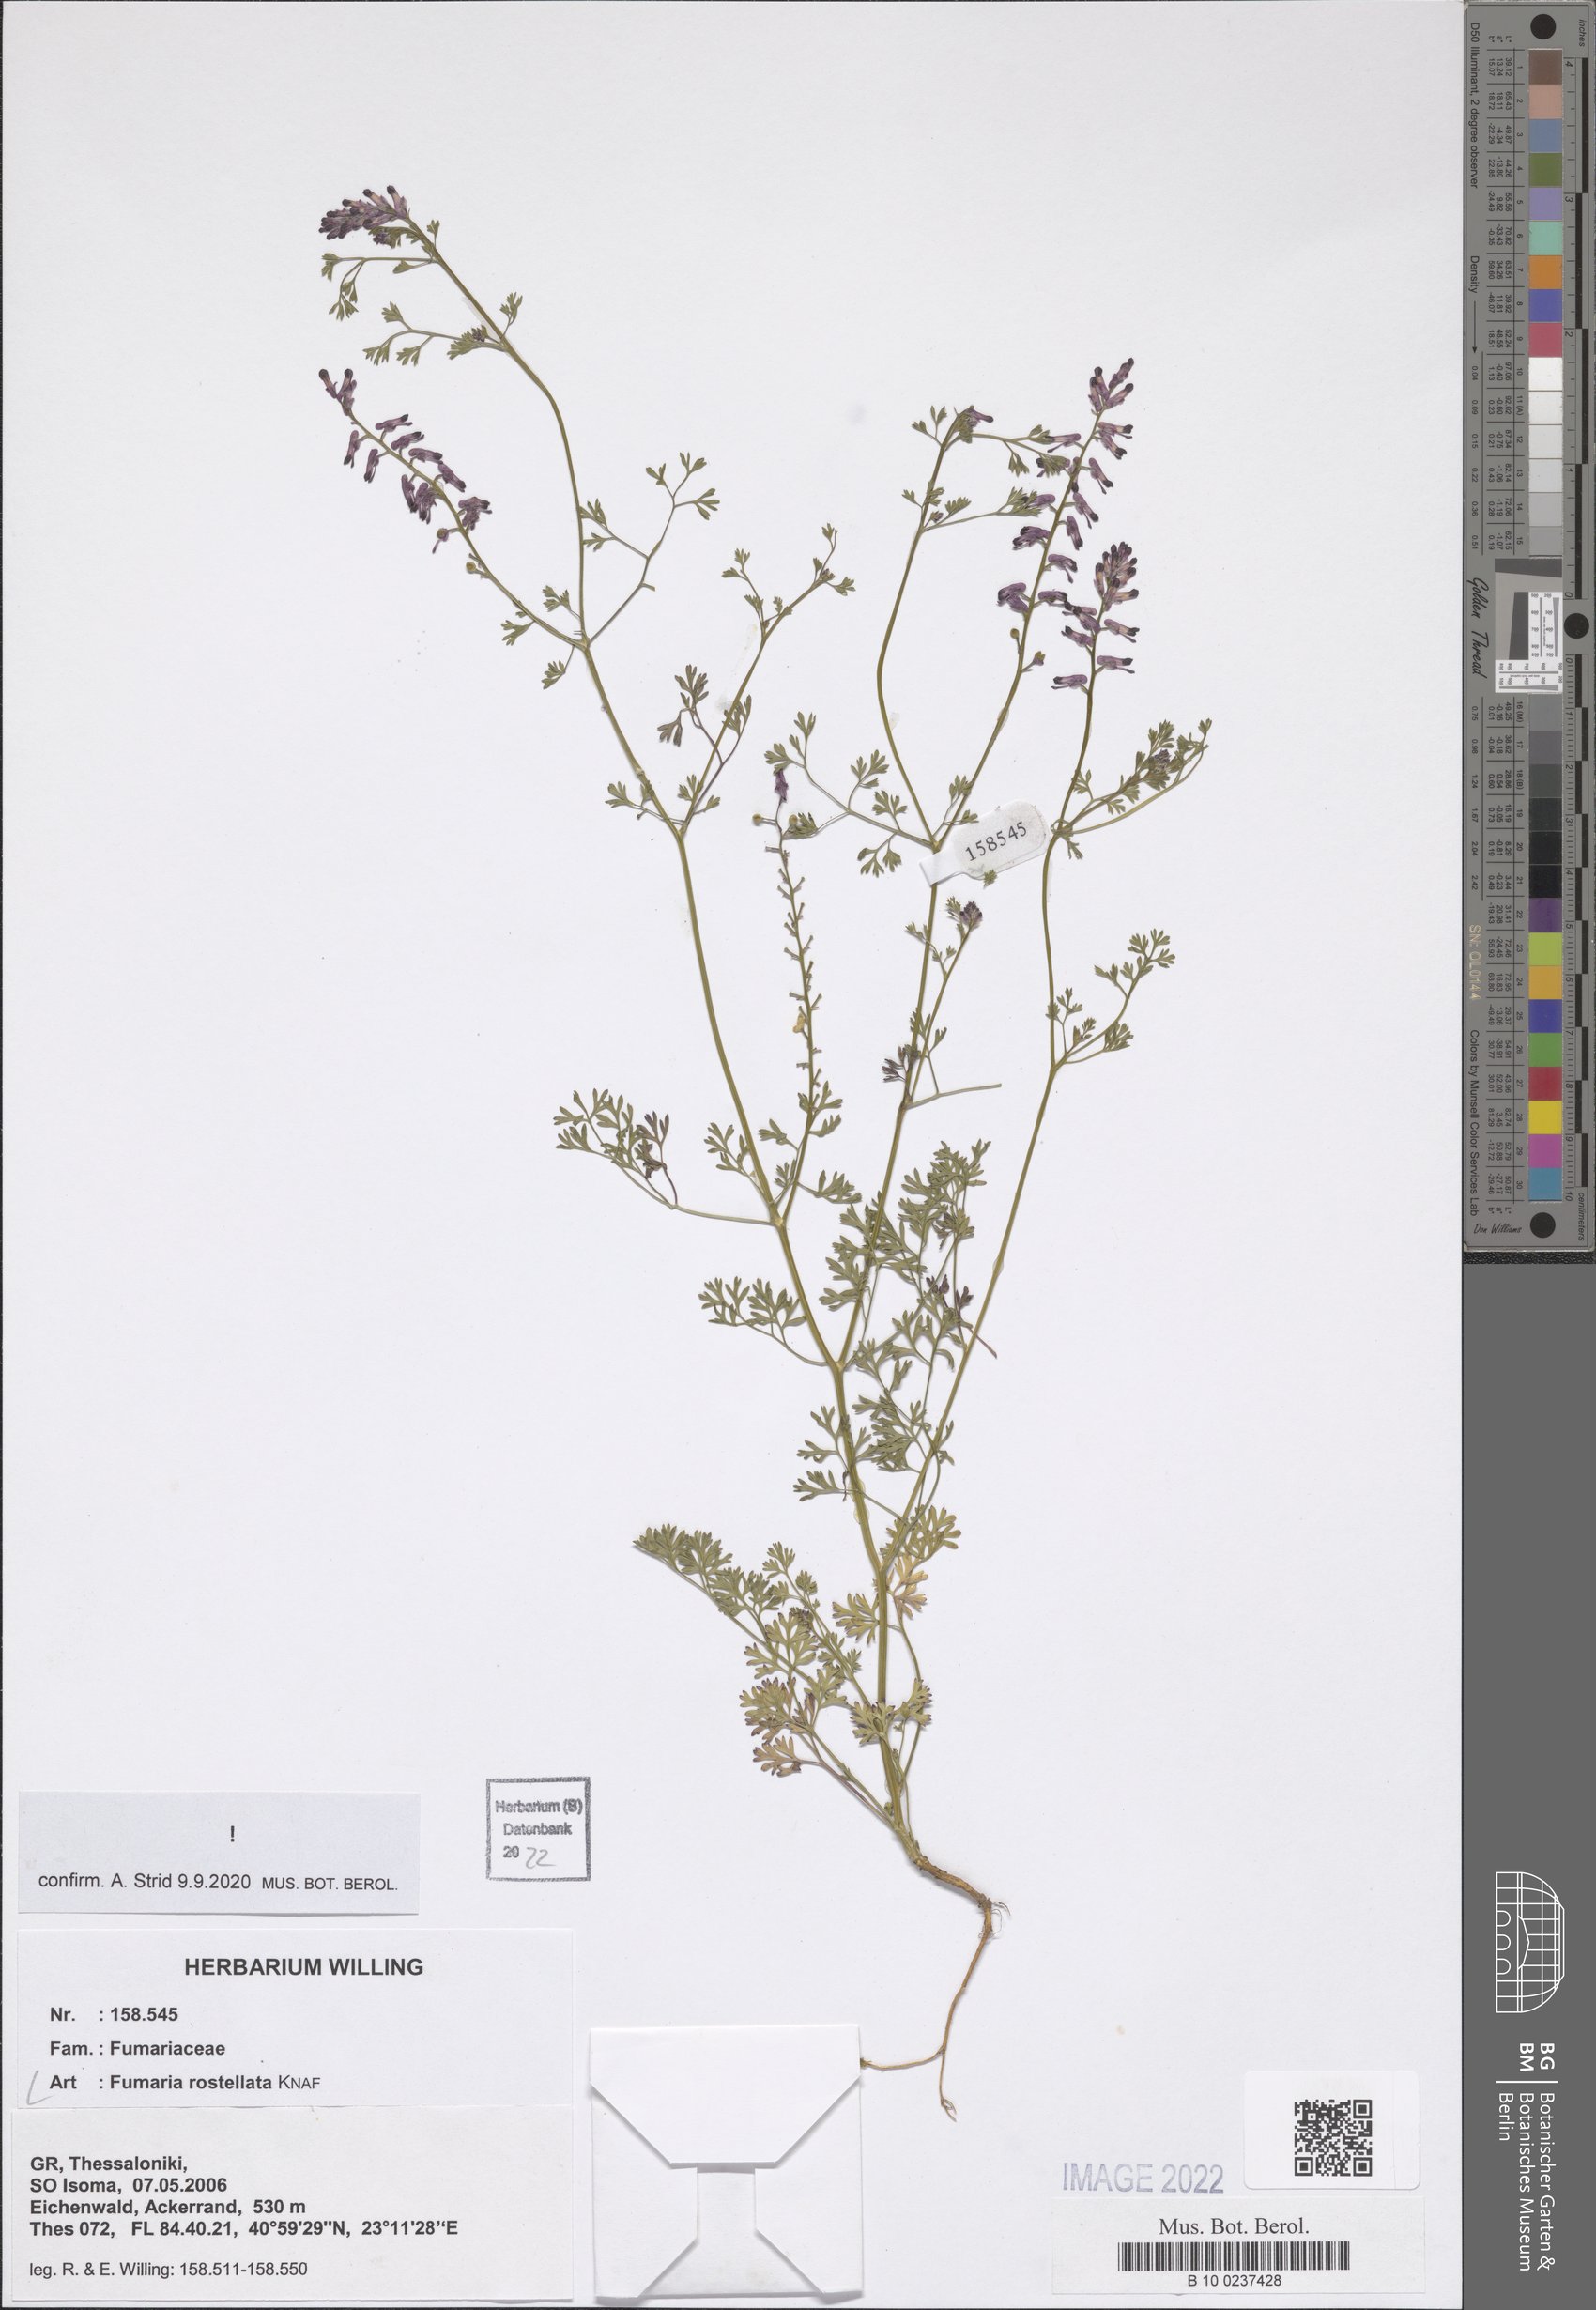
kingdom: Plantae
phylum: Tracheophyta
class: Magnoliopsida
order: Ranunculales
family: Papaveraceae
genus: Fumaria
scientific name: Fumaria rostellata
